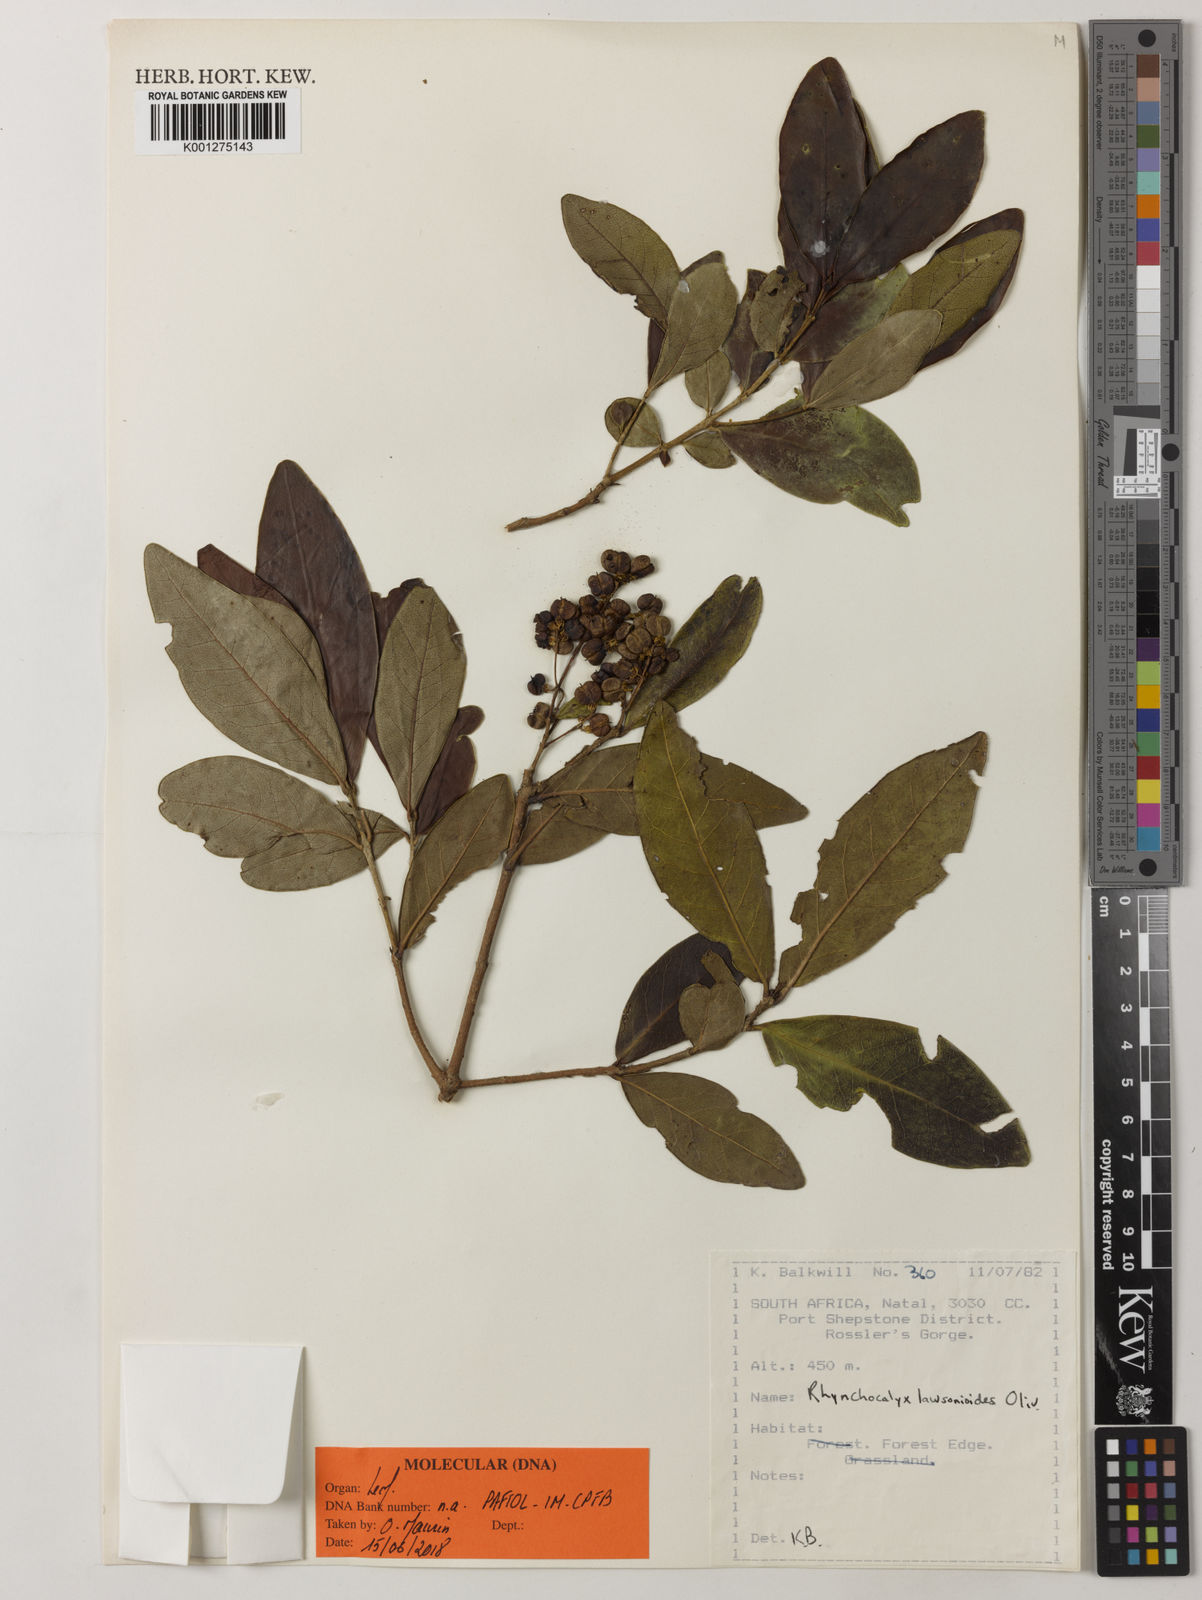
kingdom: Plantae
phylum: Tracheophyta
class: Magnoliopsida
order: Myrtales
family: Penaeaceae
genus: Rhynchocalyx
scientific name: Rhynchocalyx lawsonioides
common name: False-waterberry
